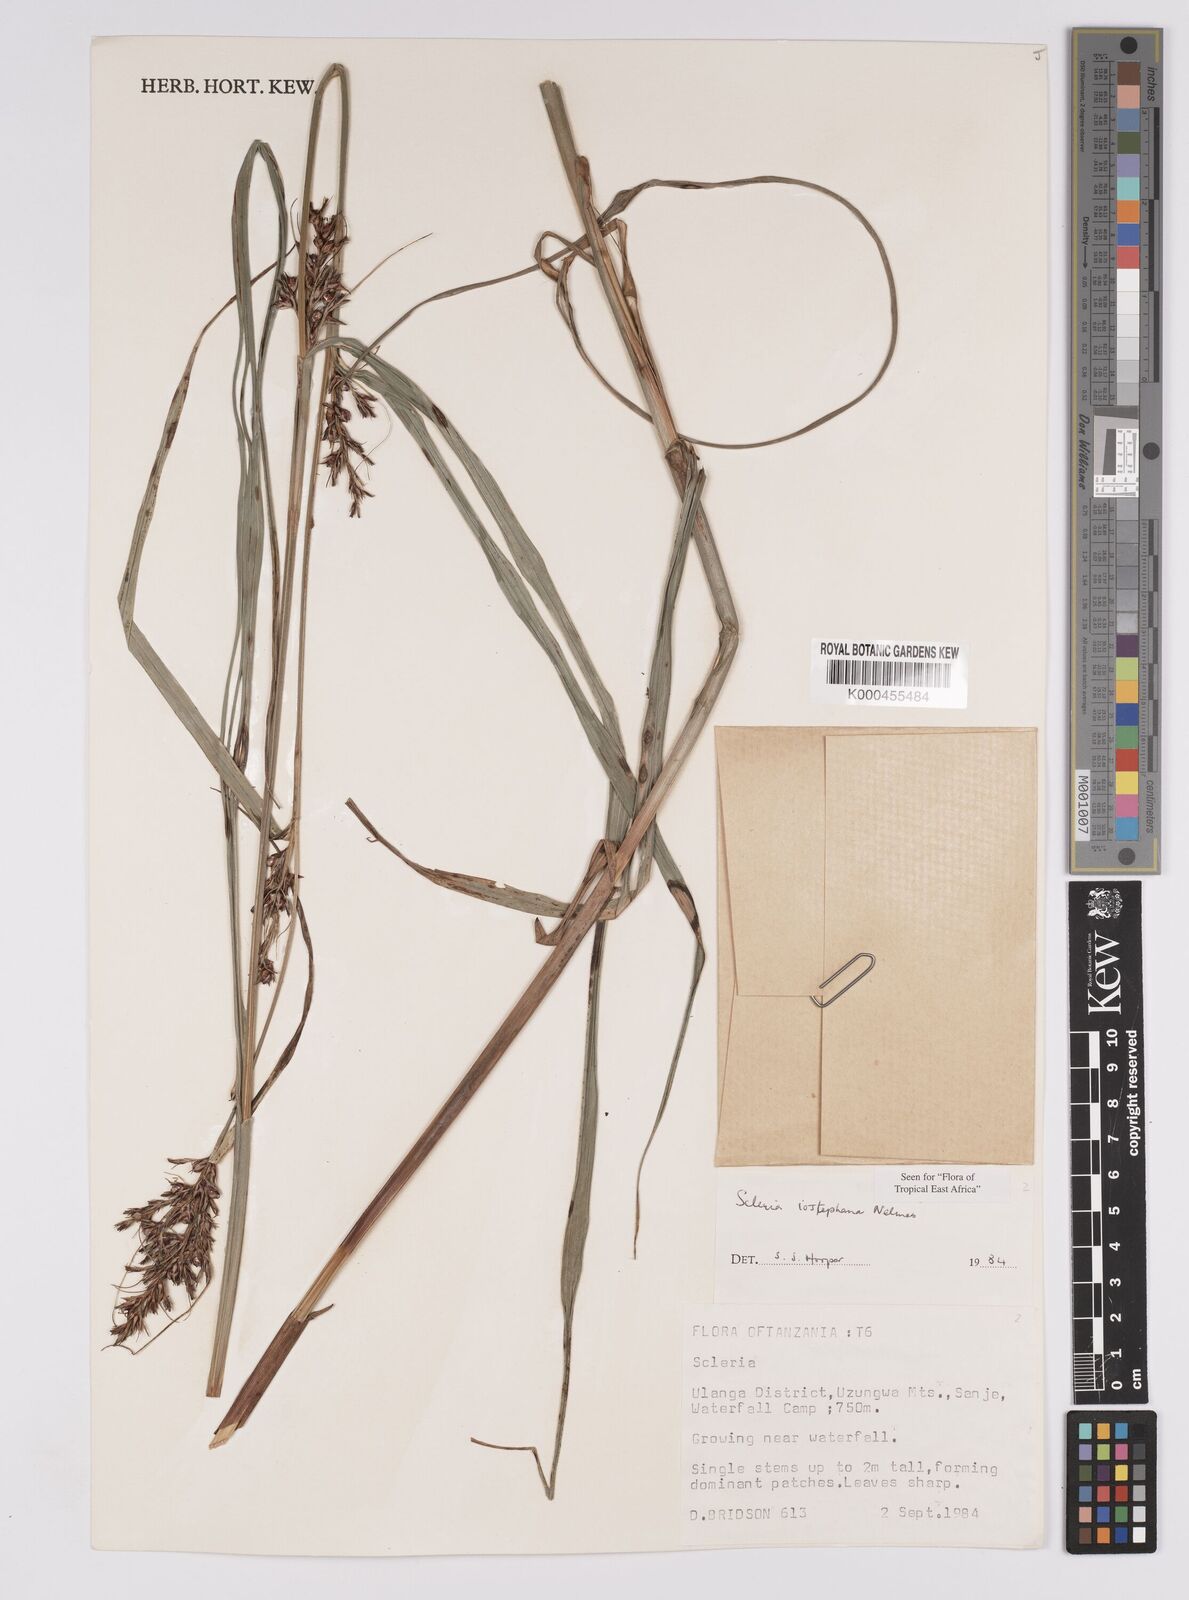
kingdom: Plantae
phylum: Tracheophyta
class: Liliopsida
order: Poales
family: Cyperaceae
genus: Scleria
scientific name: Scleria iostephana
